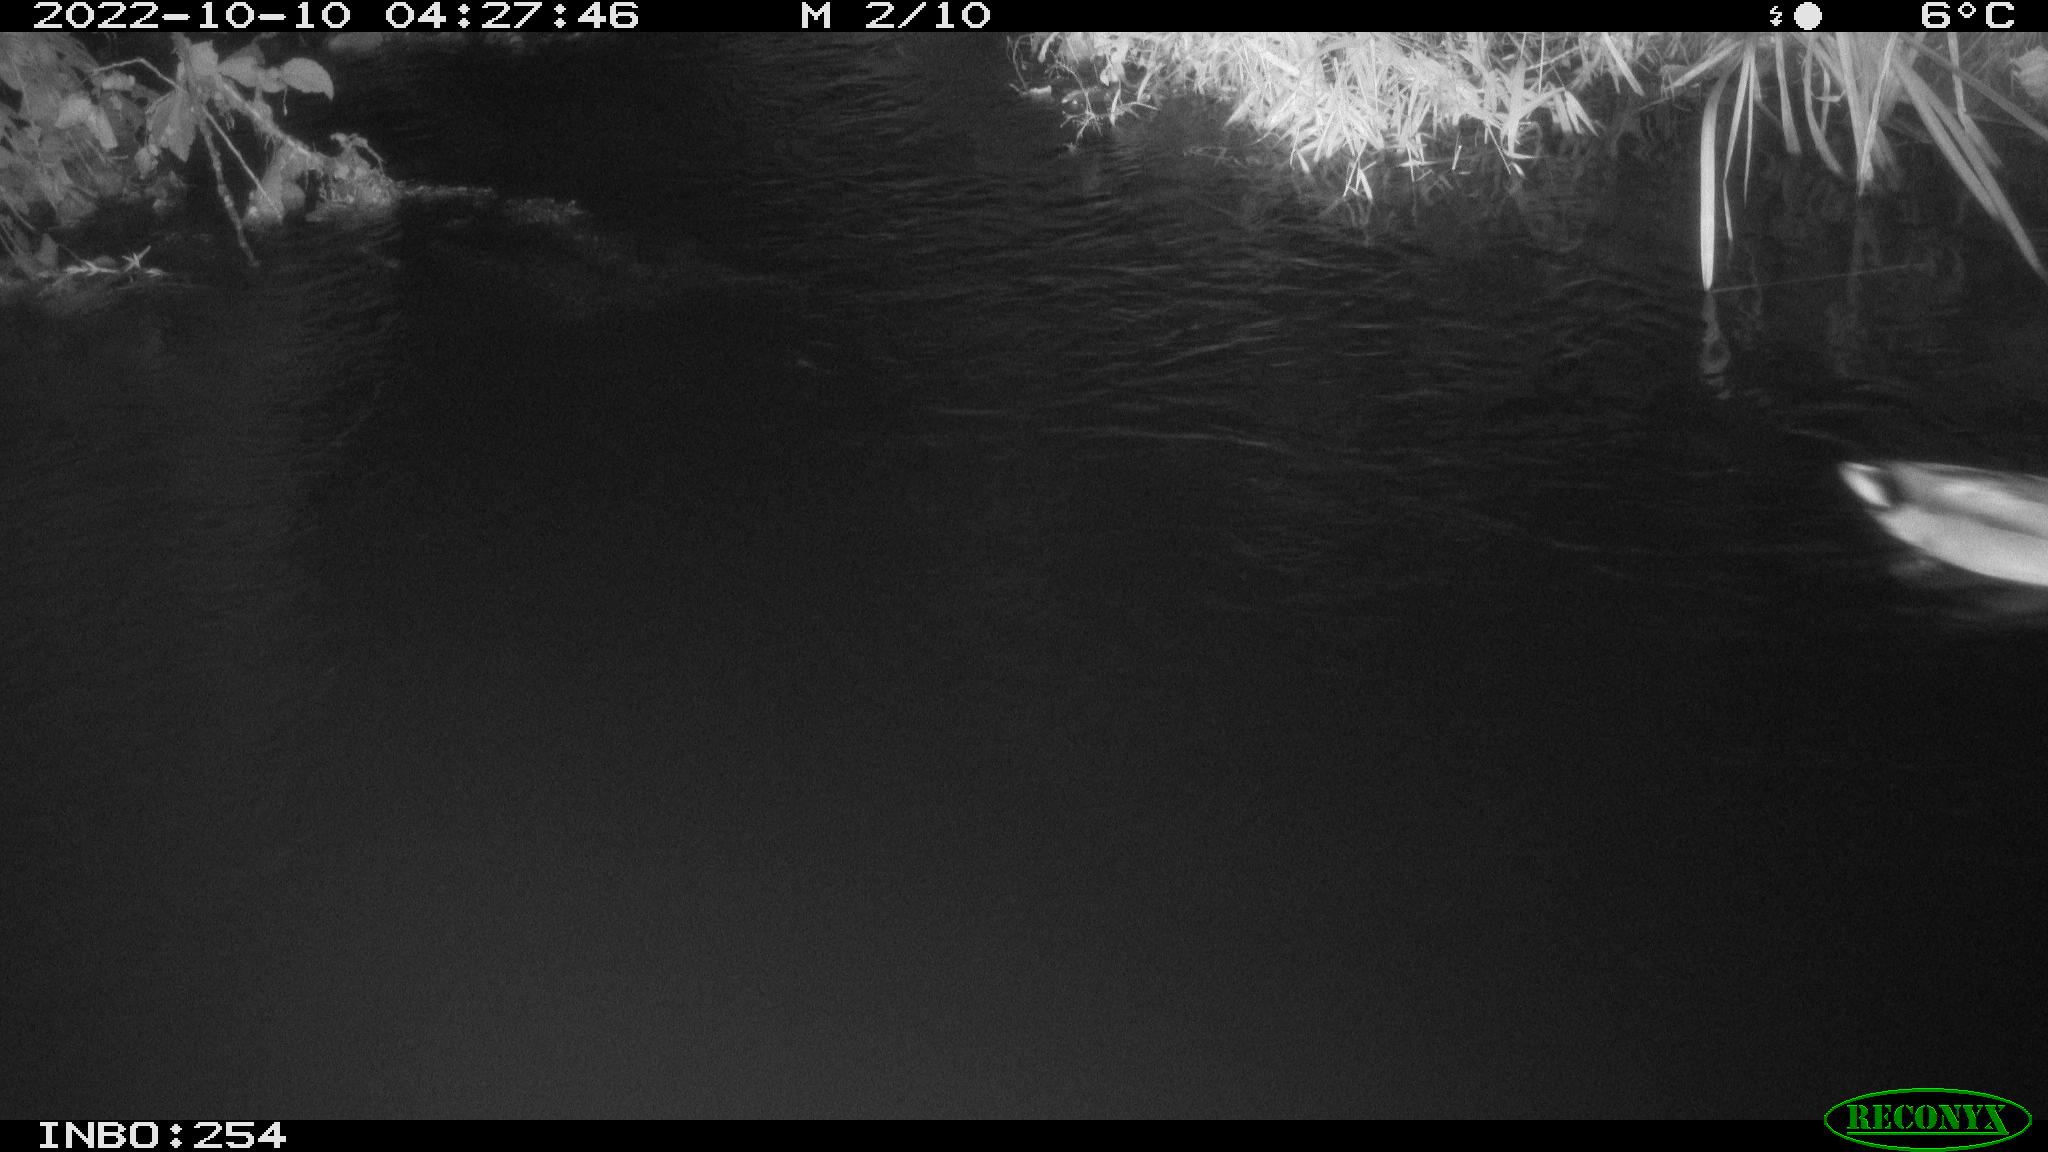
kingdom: Animalia
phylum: Chordata
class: Aves
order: Anseriformes
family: Anatidae
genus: Anas
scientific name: Anas
